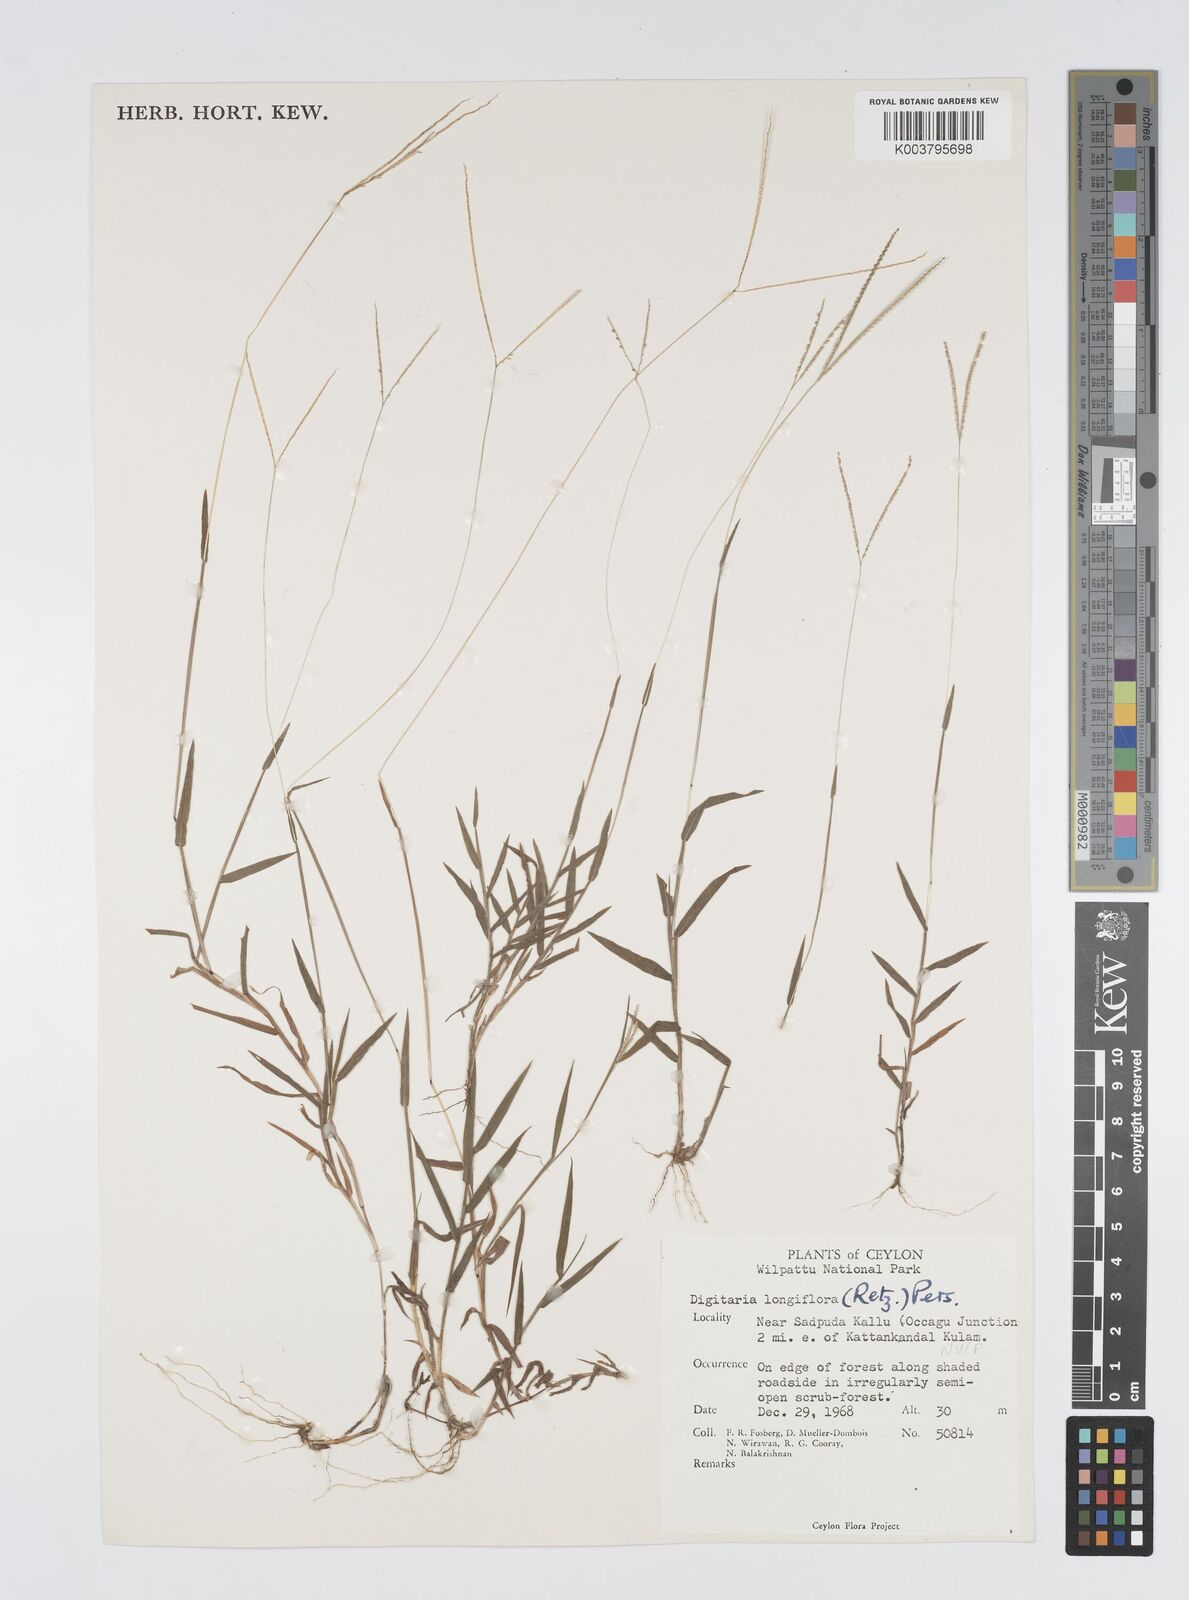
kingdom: Plantae
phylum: Tracheophyta
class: Liliopsida
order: Poales
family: Poaceae
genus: Digitaria
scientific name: Digitaria longiflora
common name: Wire crabgrass
